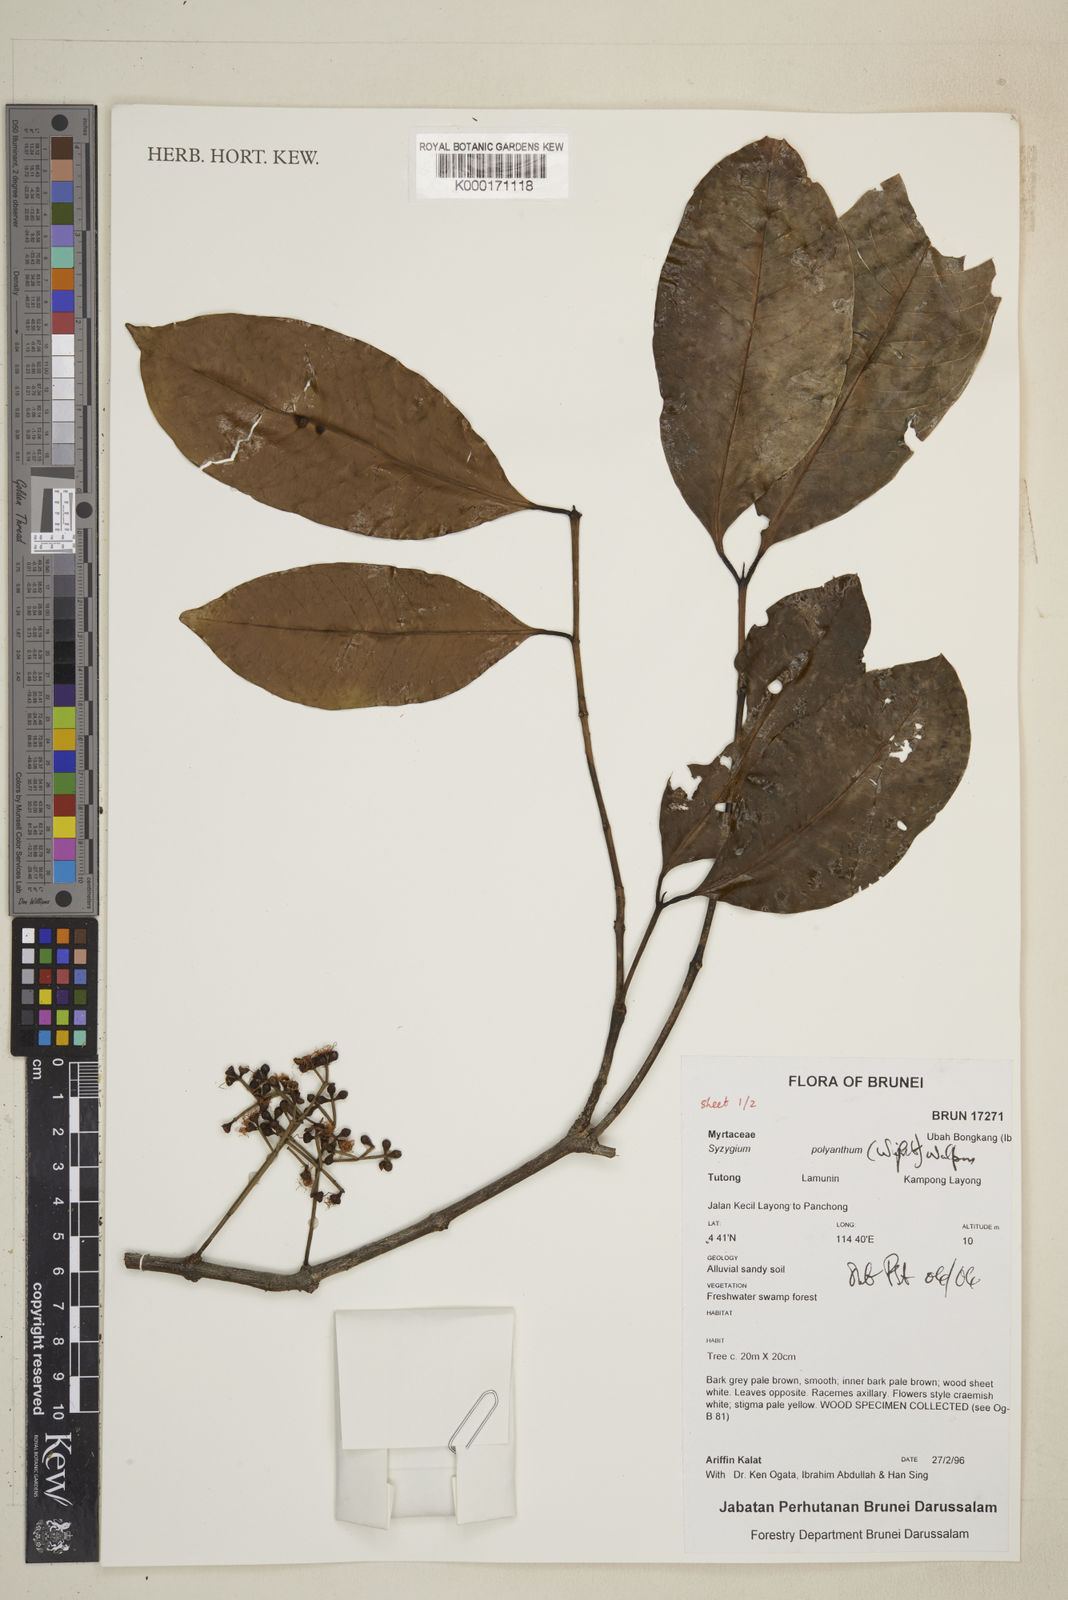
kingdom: Plantae
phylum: Tracheophyta
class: Magnoliopsida
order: Myrtales
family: Myrtaceae
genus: Syzygium
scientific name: Syzygium polyanthum
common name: Indonesian bayleaf
